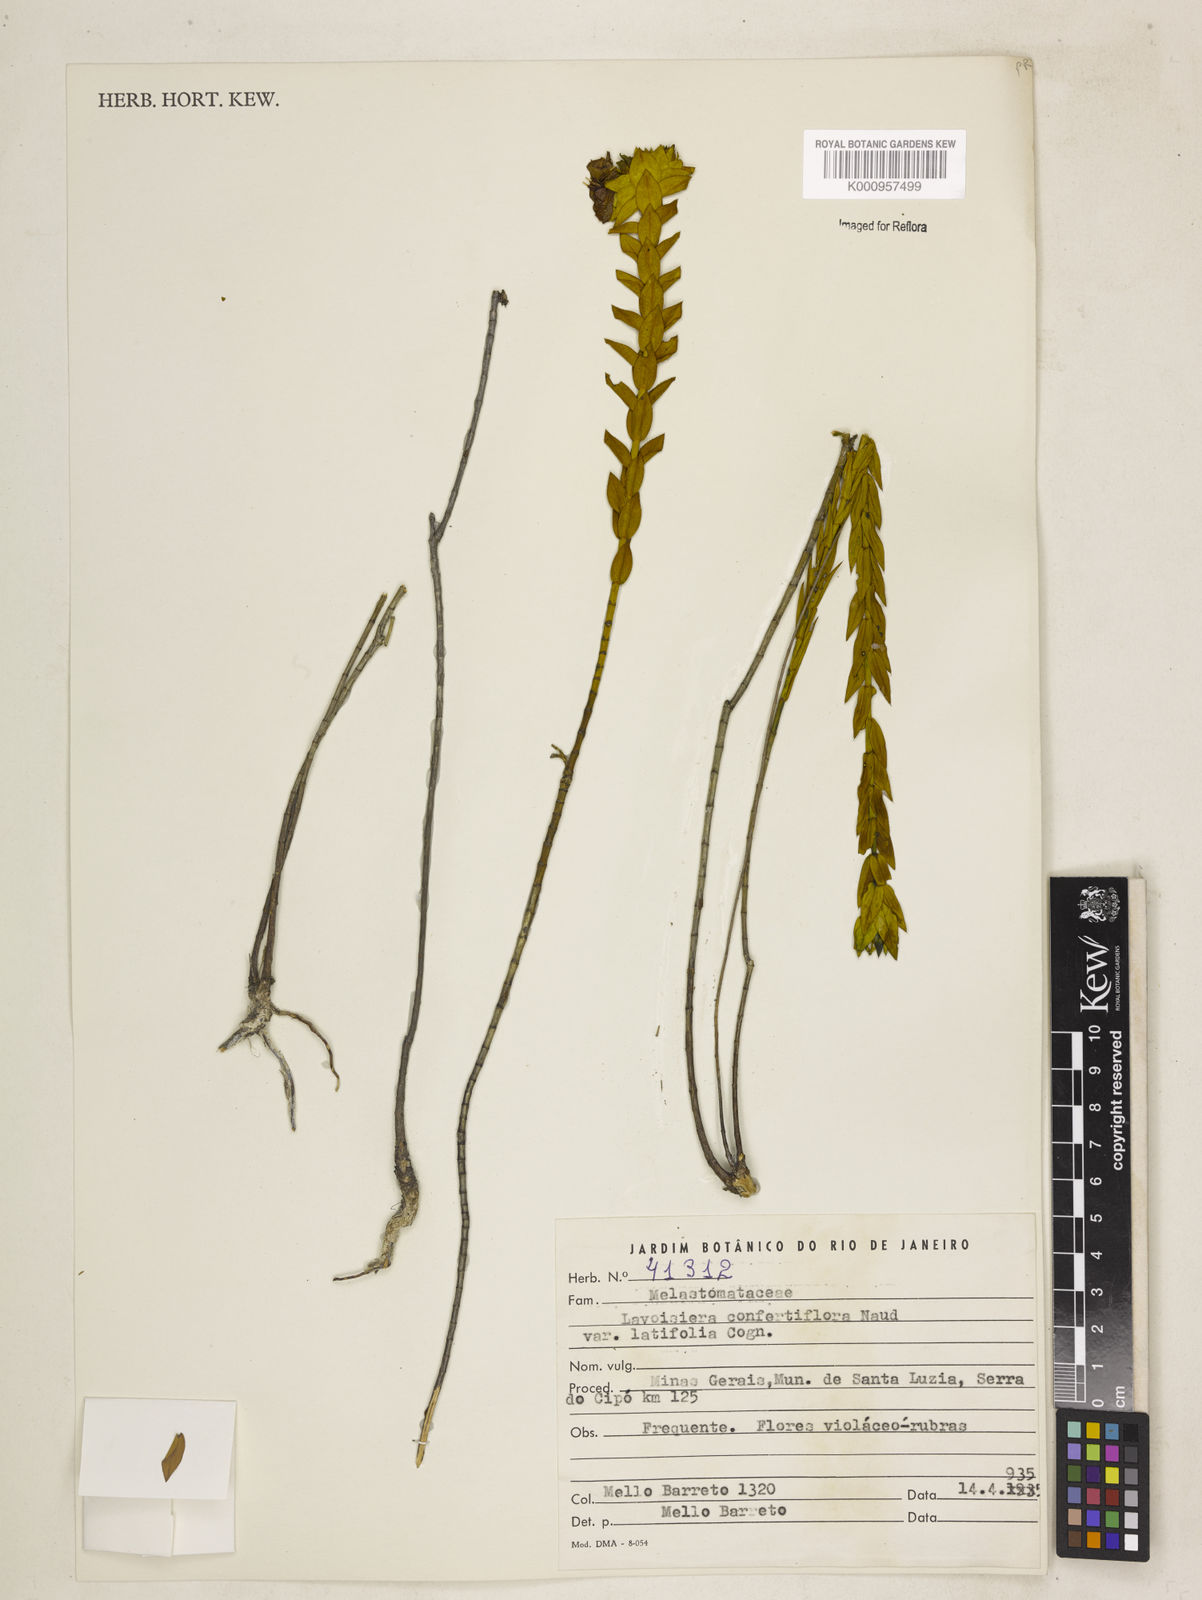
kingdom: Plantae
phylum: Tracheophyta
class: Magnoliopsida
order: Myrtales
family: Melastomataceae
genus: Microlicia
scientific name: Microlicia congestiflora
